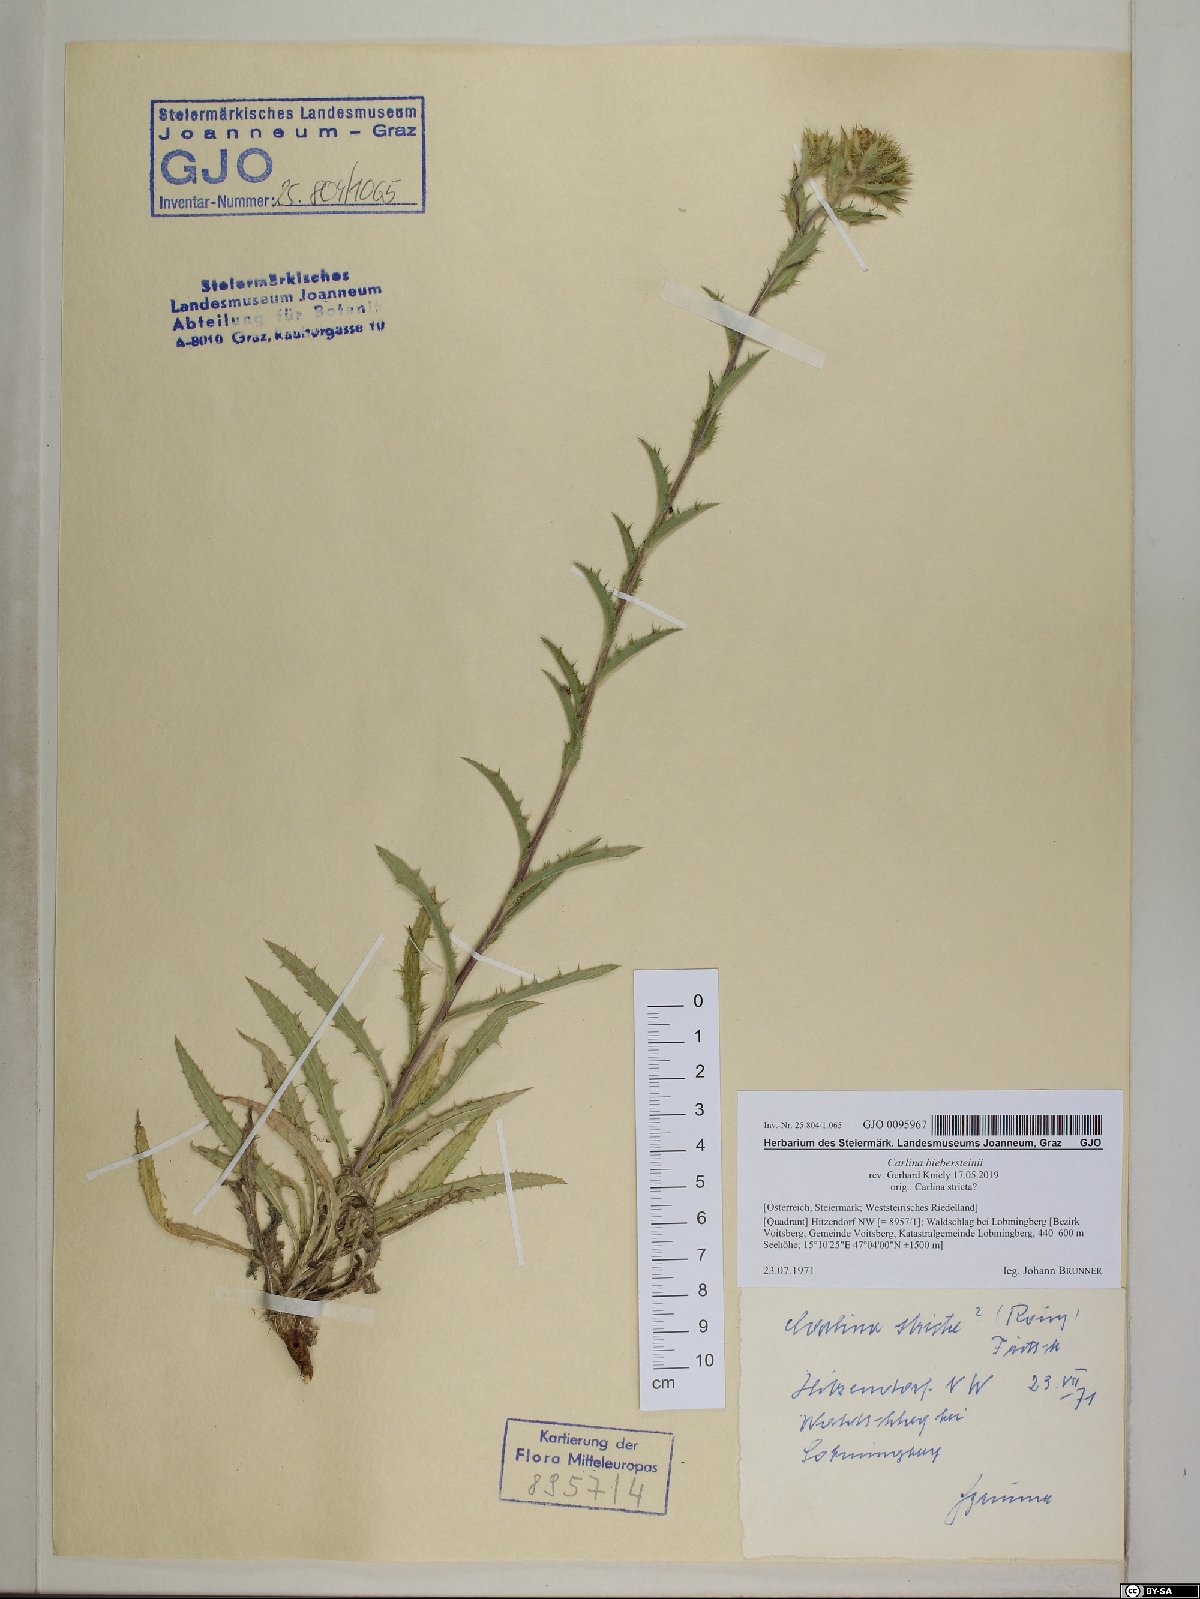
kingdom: Plantae
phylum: Tracheophyta
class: Magnoliopsida
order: Asterales
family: Asteraceae
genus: Carlina
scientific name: Carlina biebersteinii
